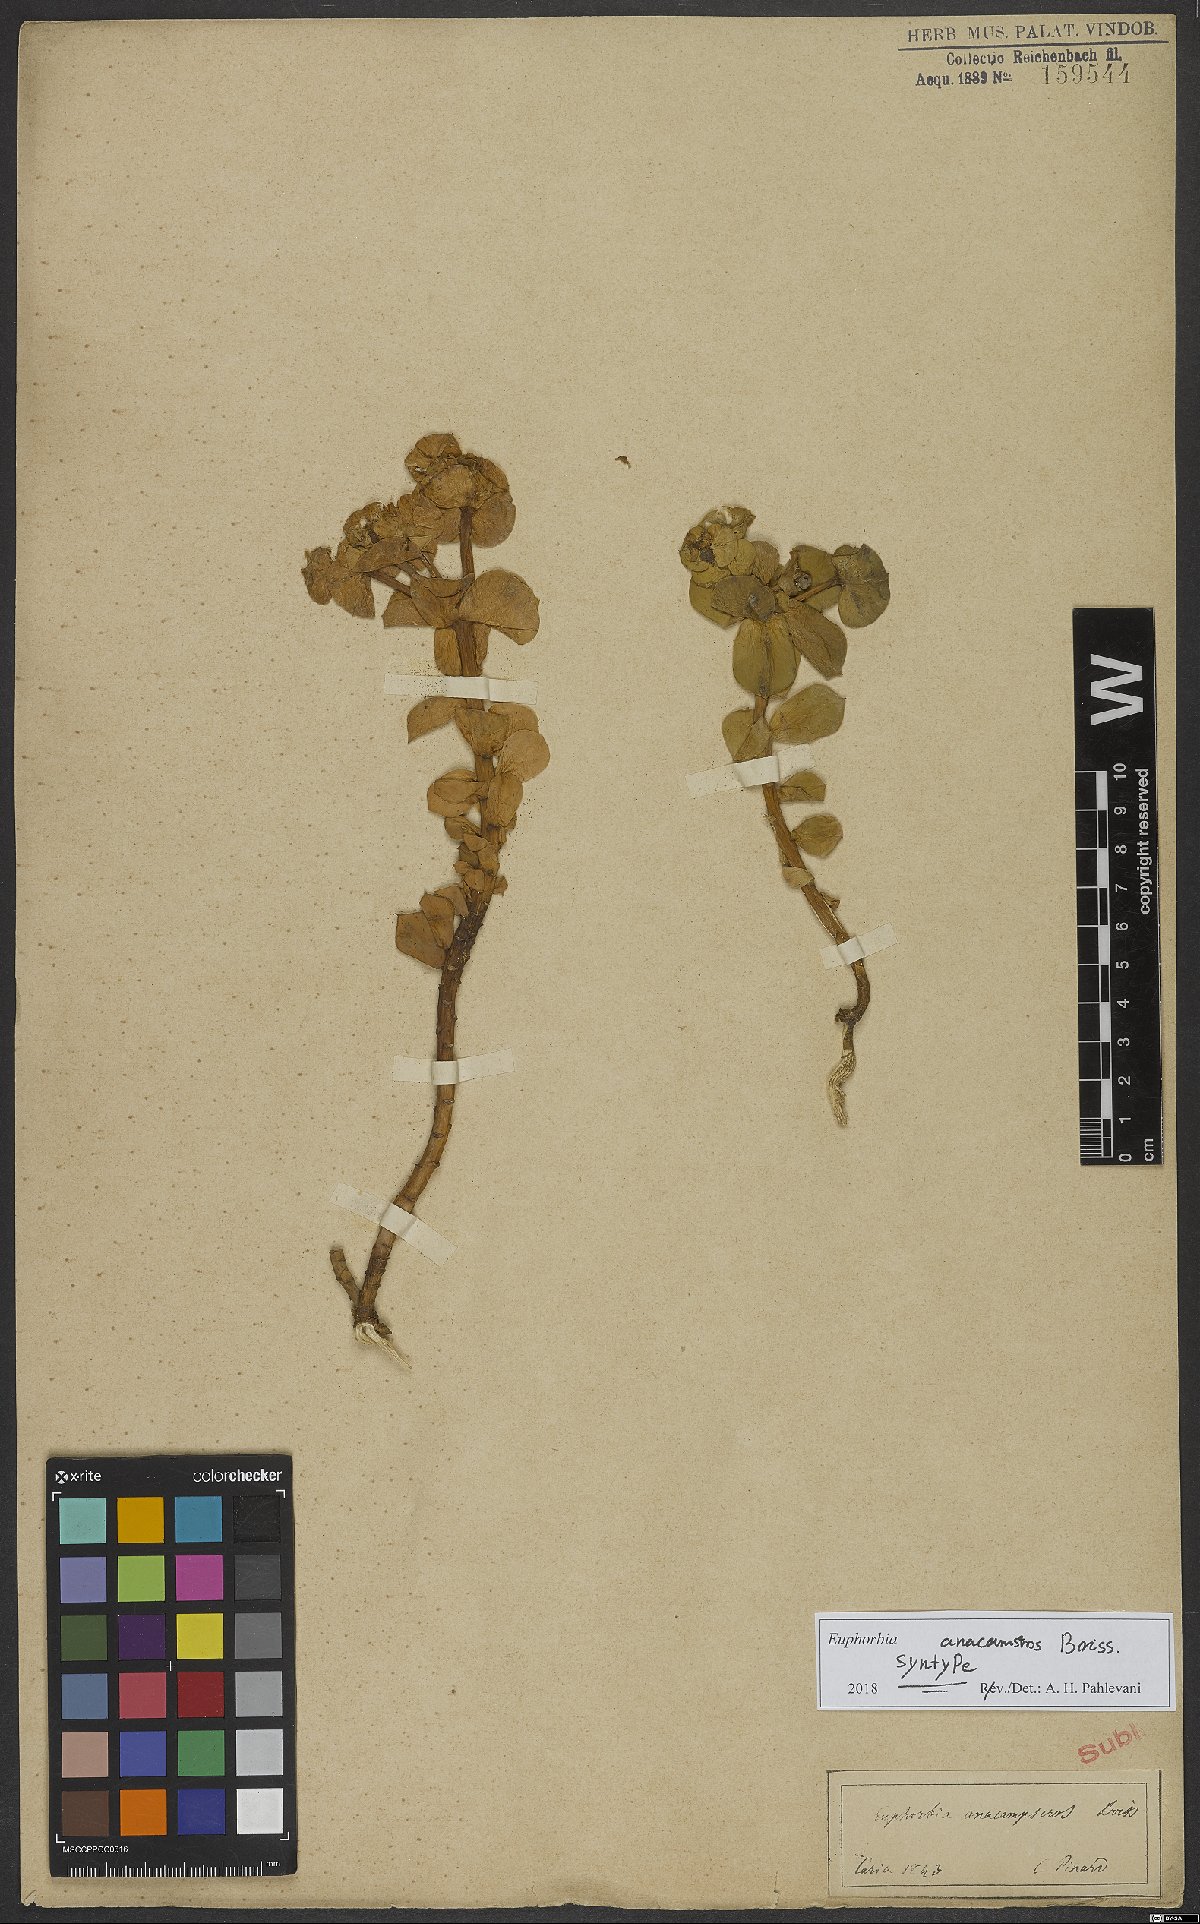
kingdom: Plantae
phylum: Tracheophyta
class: Magnoliopsida
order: Malpighiales
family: Euphorbiaceae
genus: Euphorbia
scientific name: Euphorbia anacampseros
